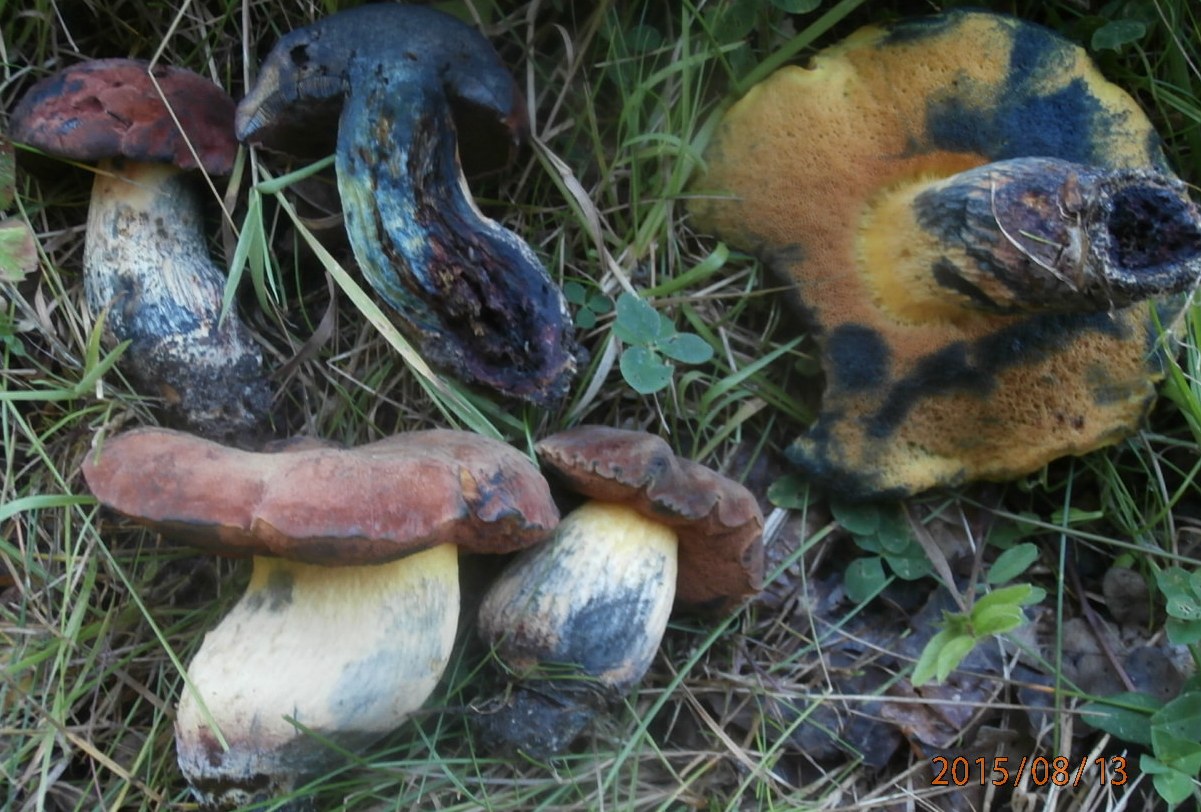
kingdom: Fungi
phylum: Basidiomycota
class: Agaricomycetes
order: Boletales
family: Boletaceae
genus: Suillellus
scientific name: Suillellus queletii
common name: glatstokket indigorørhat
